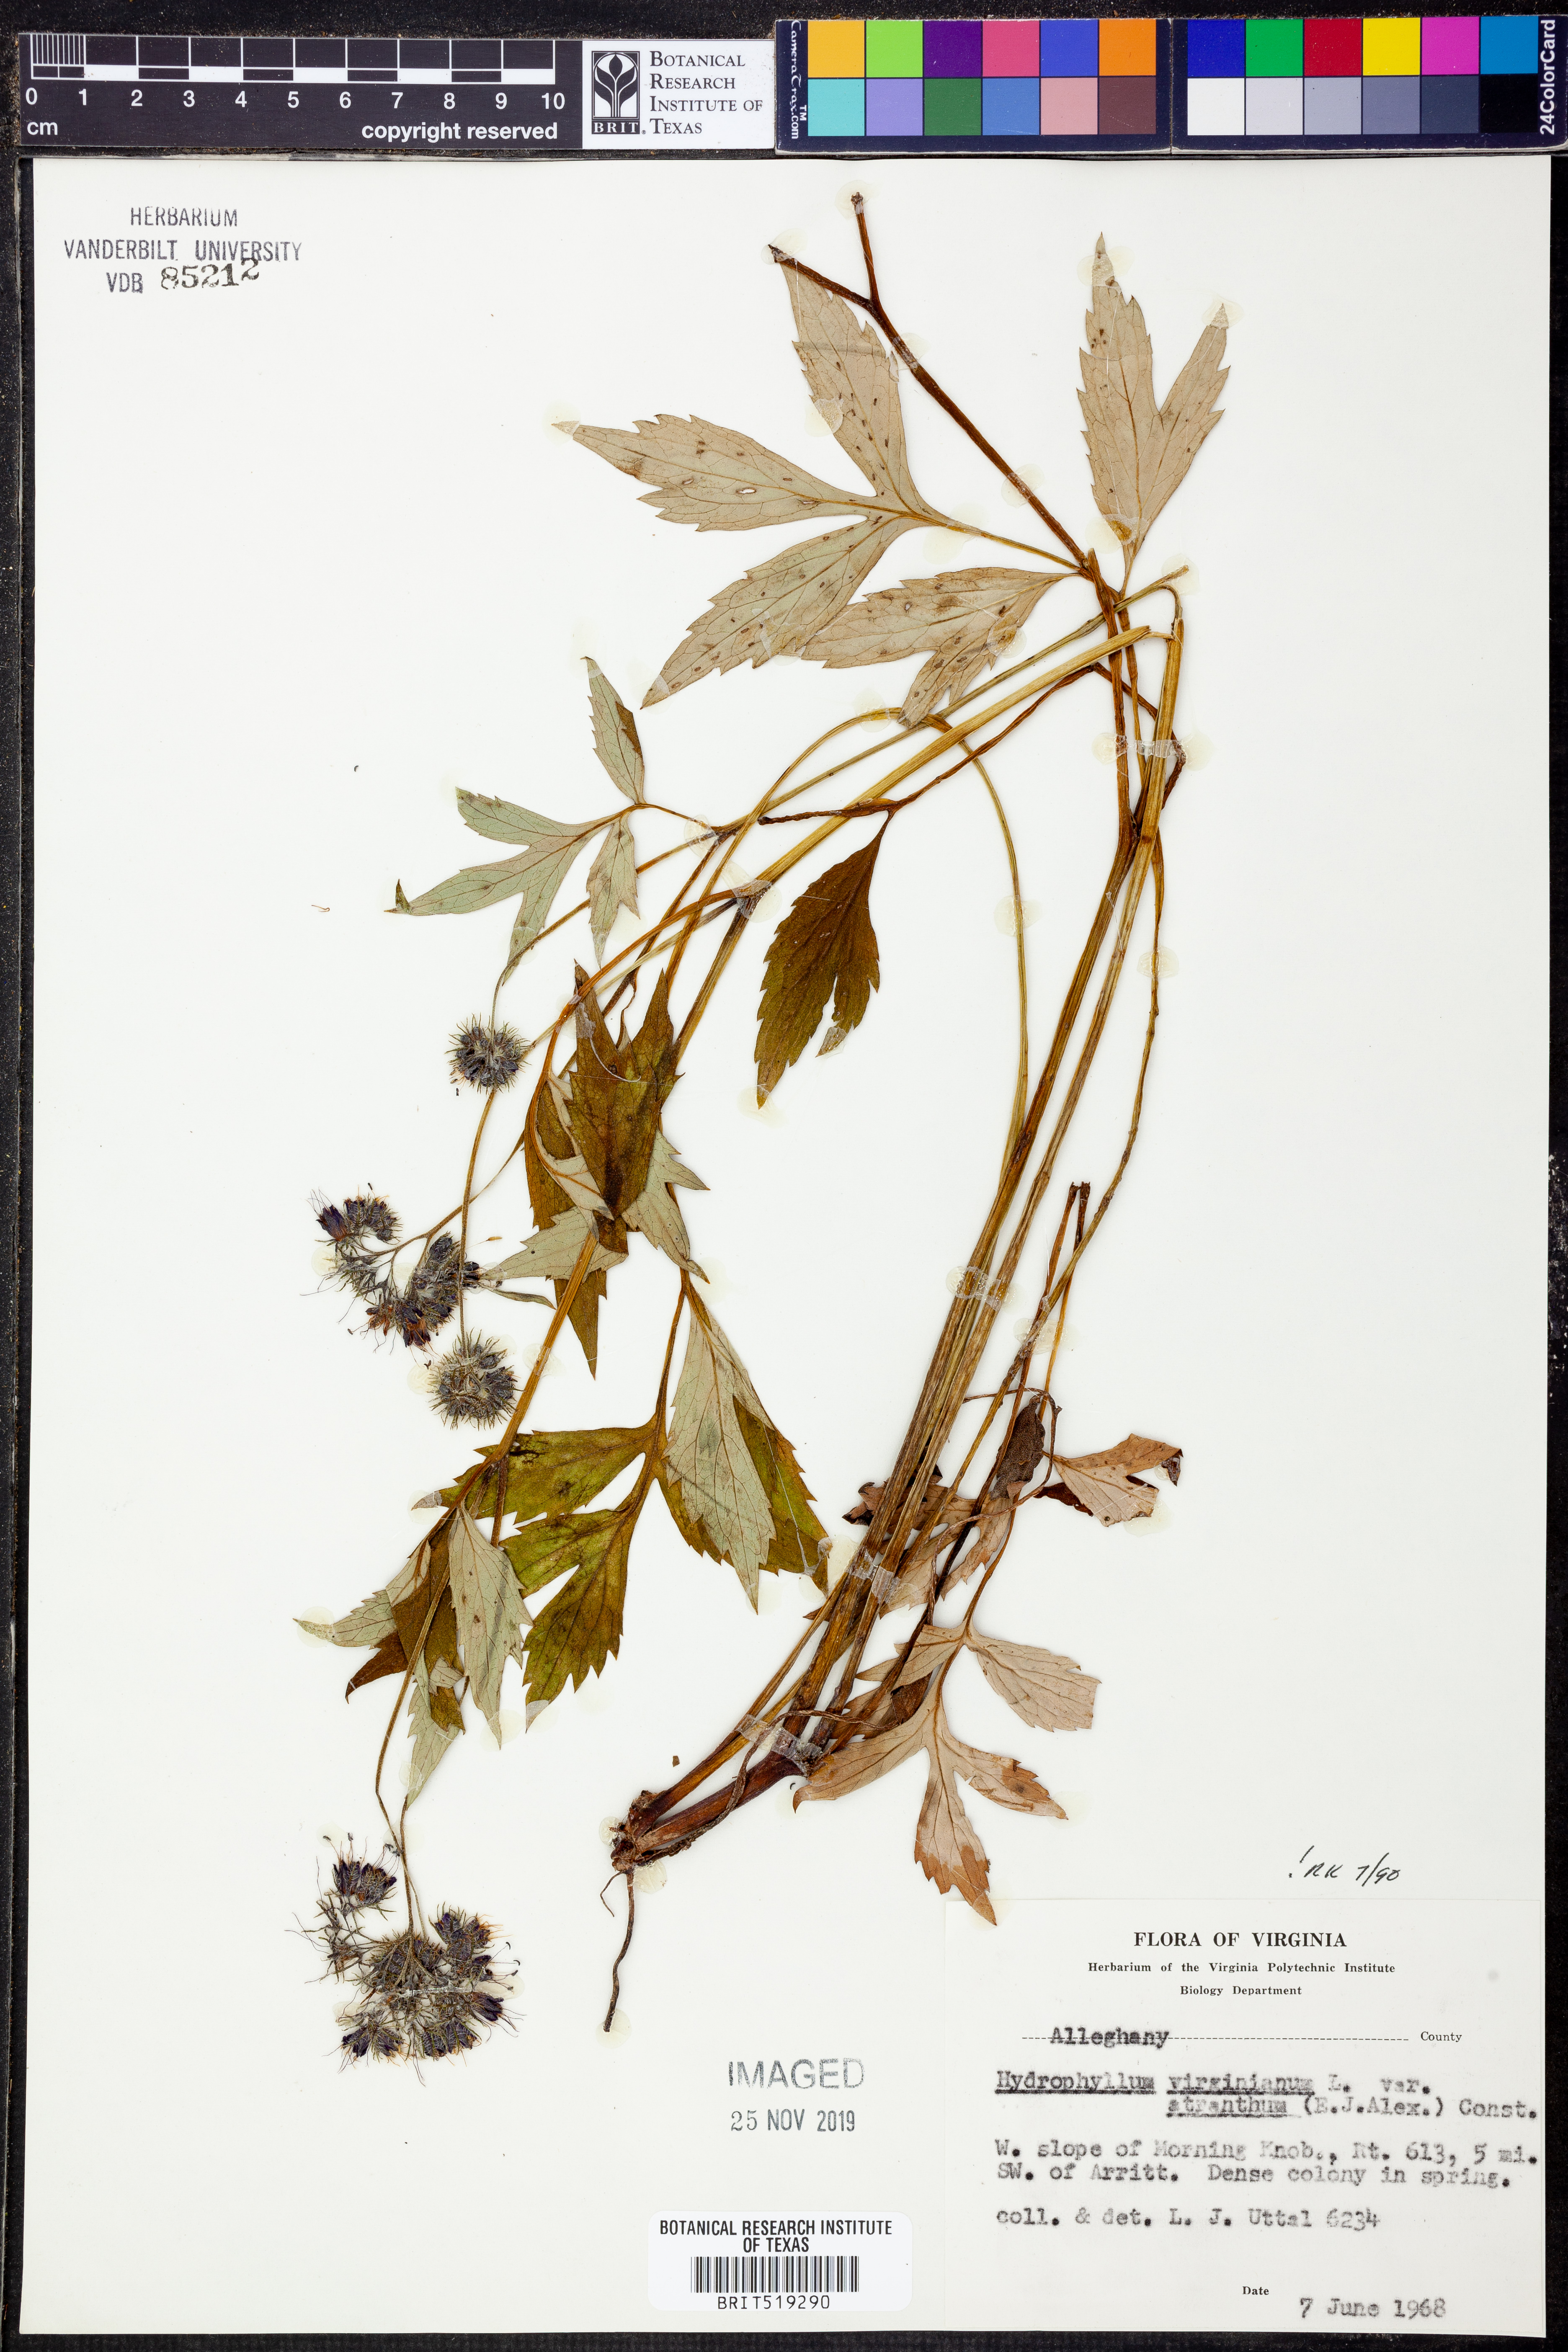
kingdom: Plantae
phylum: Tracheophyta
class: Magnoliopsida
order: Boraginales
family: Hydrophyllaceae
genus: Hydrophyllum
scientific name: Hydrophyllum virginianum
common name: Virginia waterleaf
